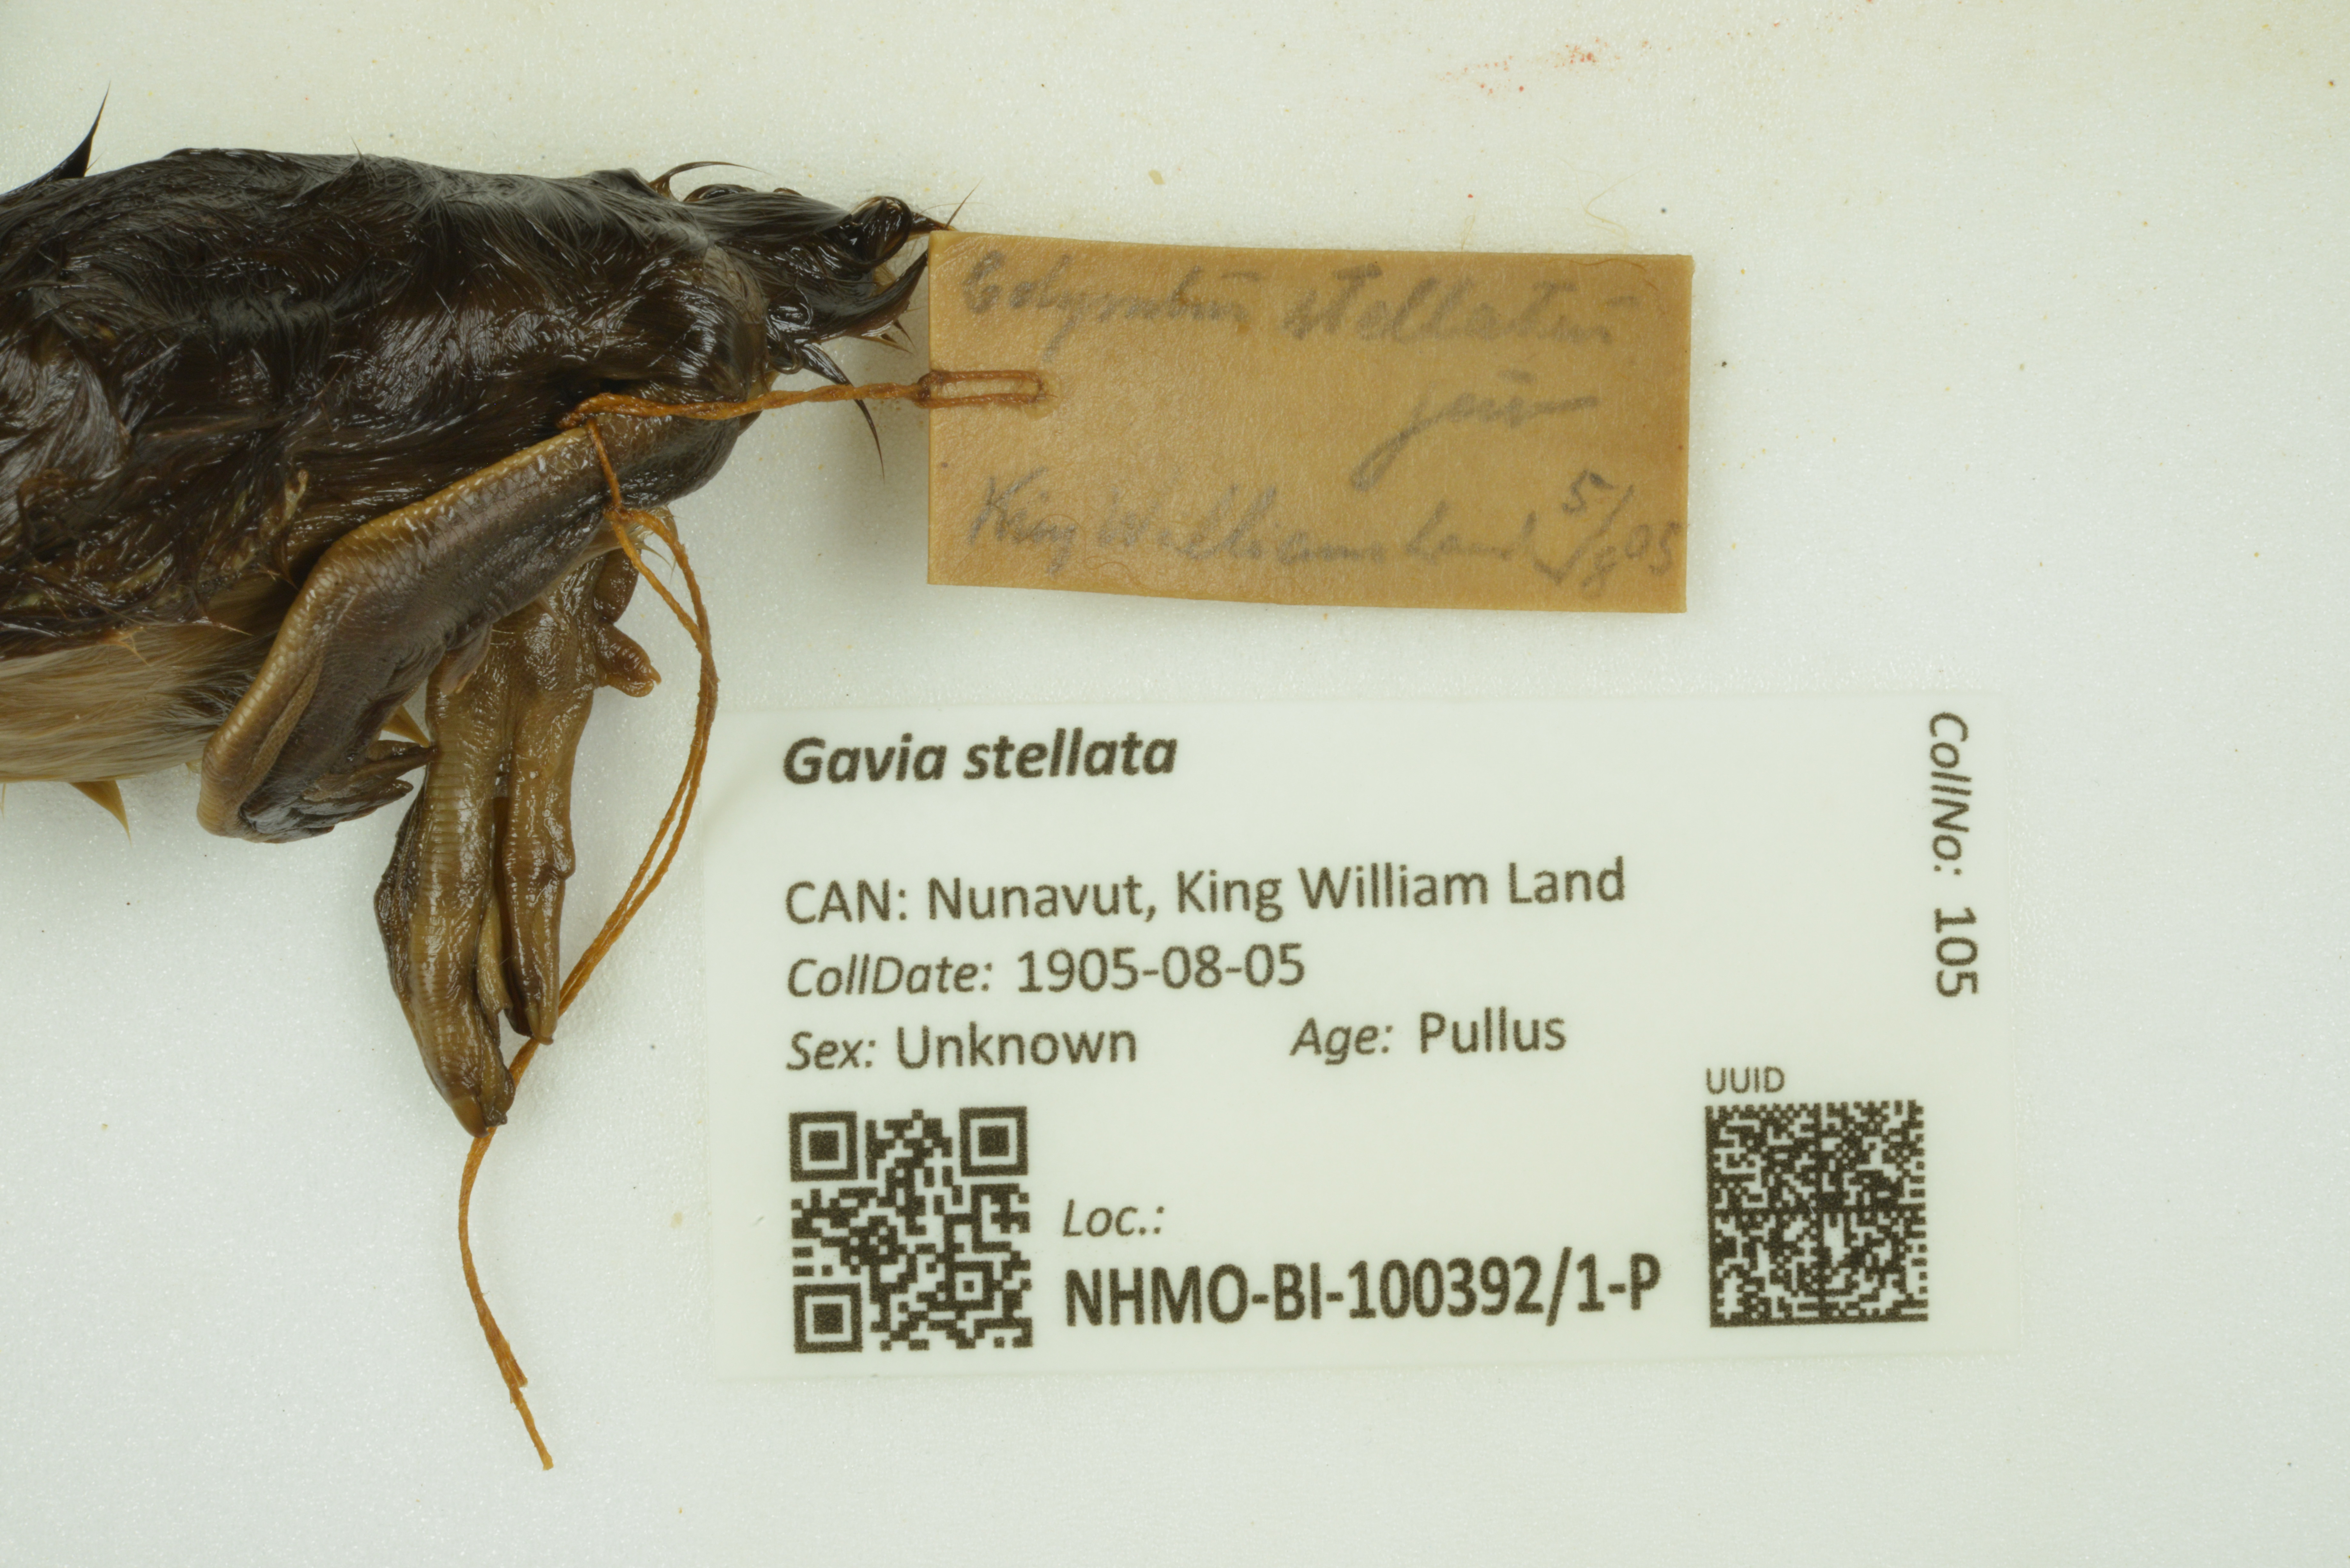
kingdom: Animalia
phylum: Chordata
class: Aves
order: Gaviiformes
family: Gaviidae
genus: Gavia
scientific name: Gavia stellata
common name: Red-throated loon
